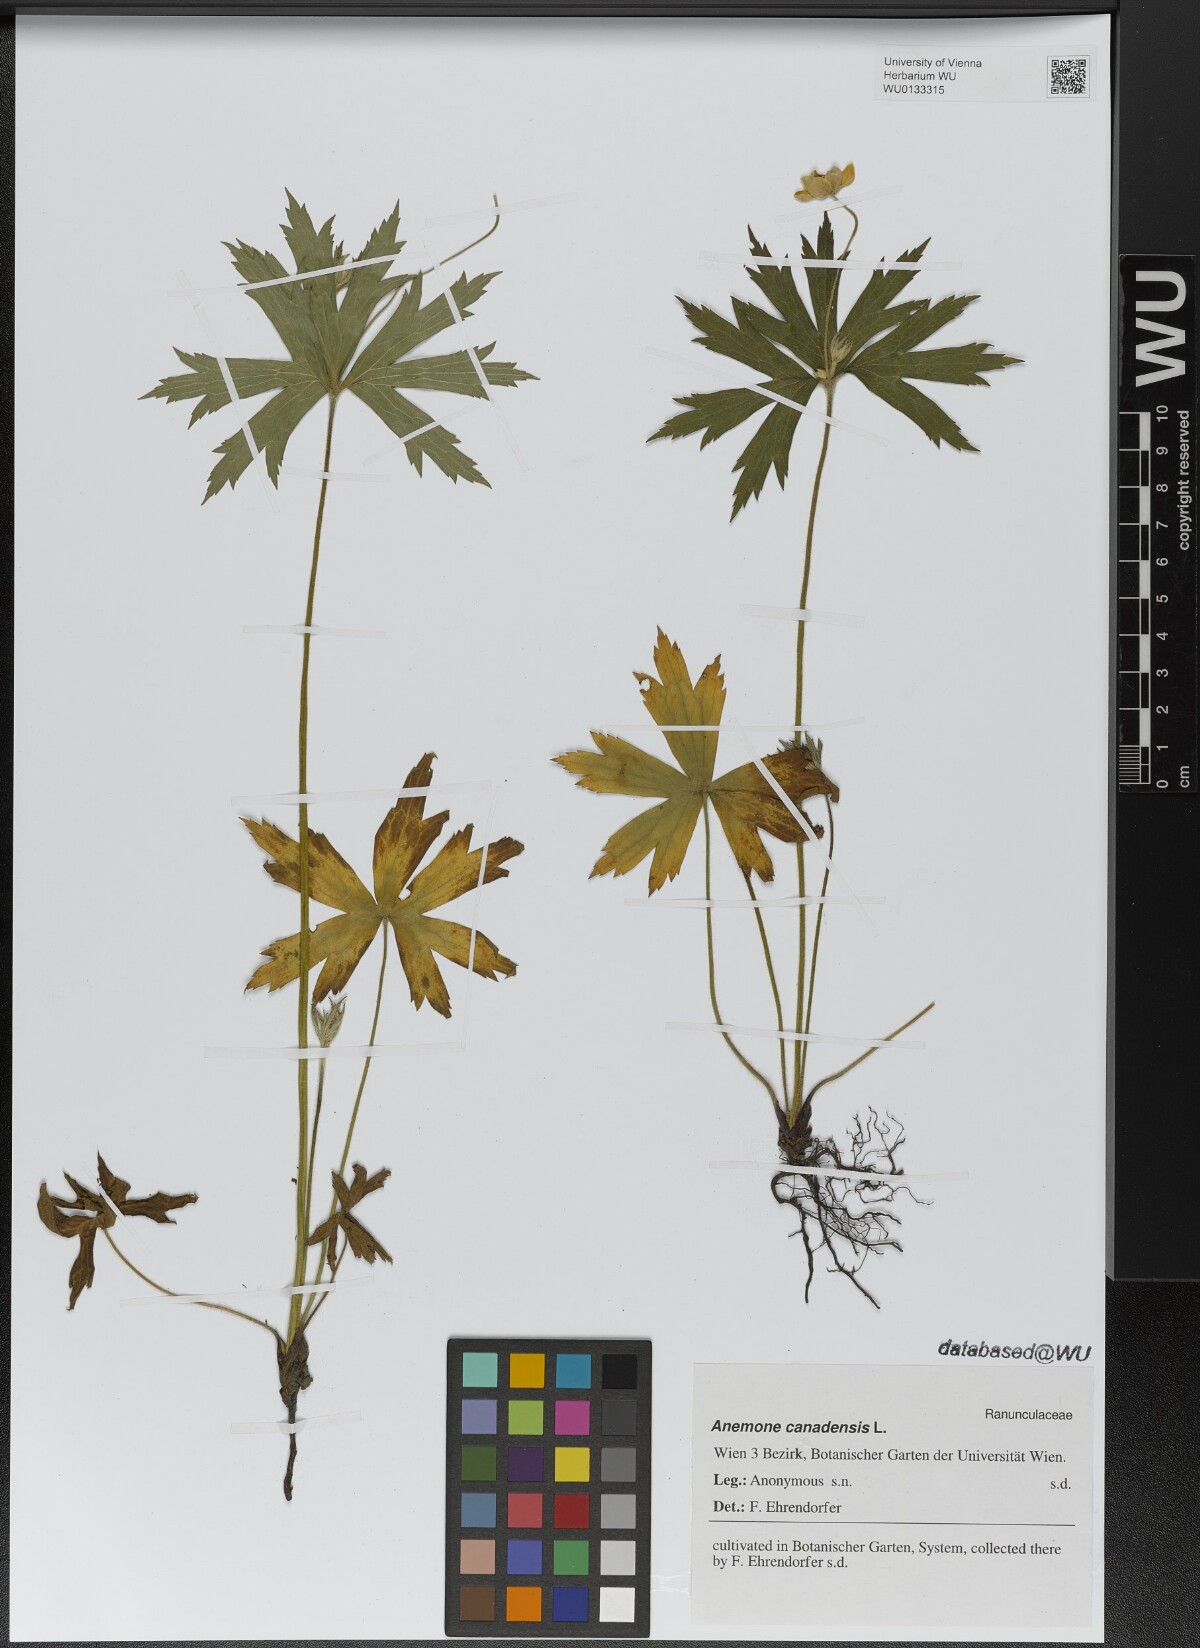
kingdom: Plantae
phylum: Tracheophyta
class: Magnoliopsida
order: Ranunculales
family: Ranunculaceae
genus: Anemonastrum
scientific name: Anemonastrum canadense
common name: Canada anemone
